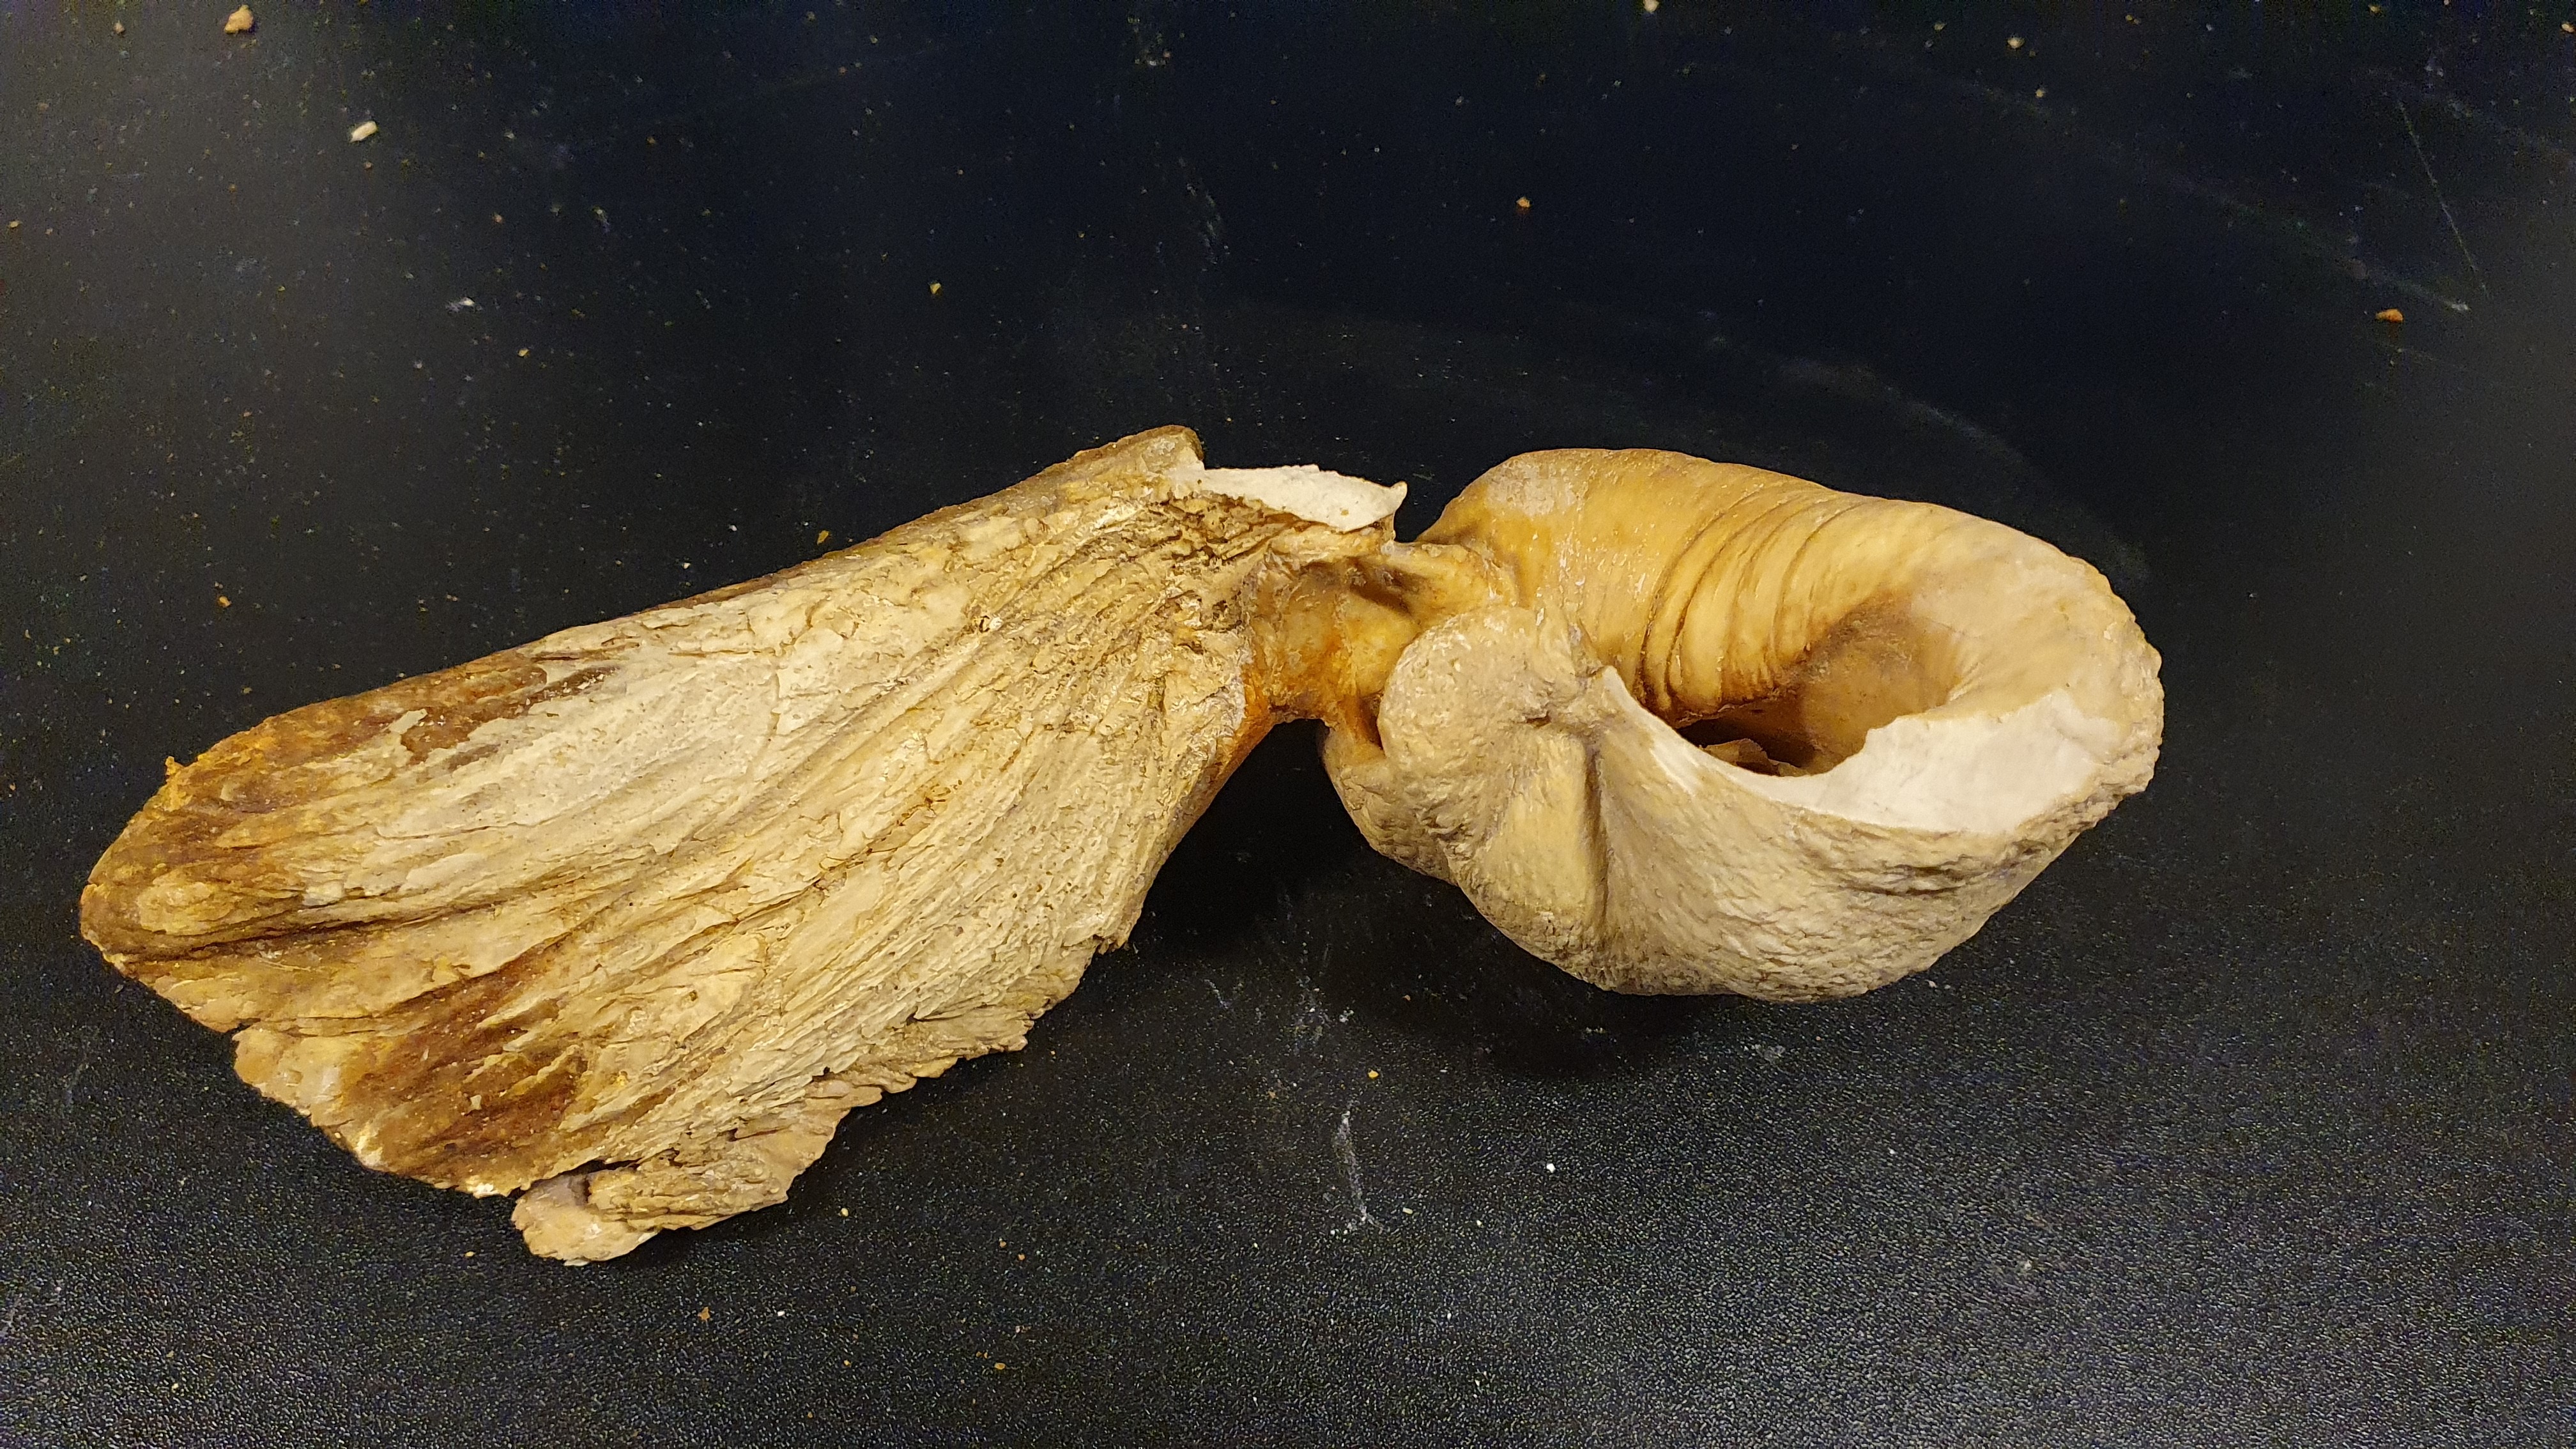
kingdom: Animalia
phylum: Chordata
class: Mammalia
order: Cetacea
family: Balaenopteridae
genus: Megaptera
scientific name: Megaptera novaeangliae
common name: Humpback whale
